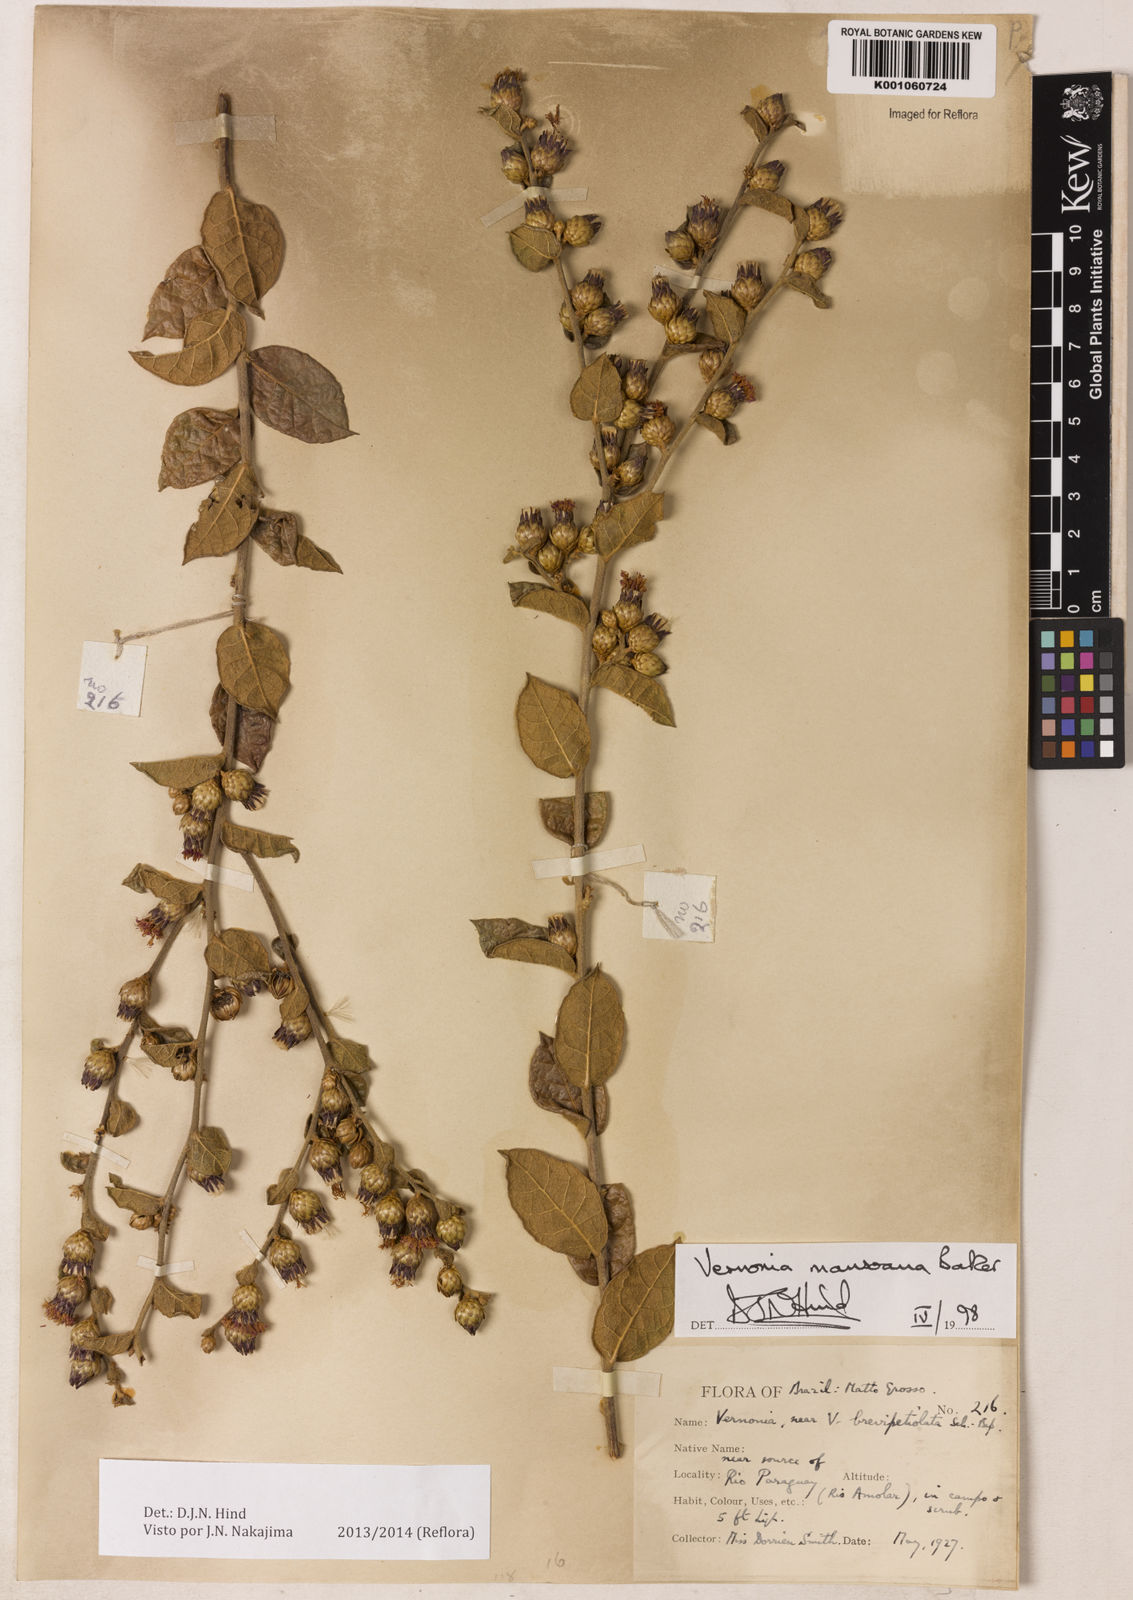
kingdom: Plantae
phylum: Tracheophyta
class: Magnoliopsida
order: Asterales
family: Asteraceae
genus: Lessingianthus
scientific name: Lessingianthus mansoanus
